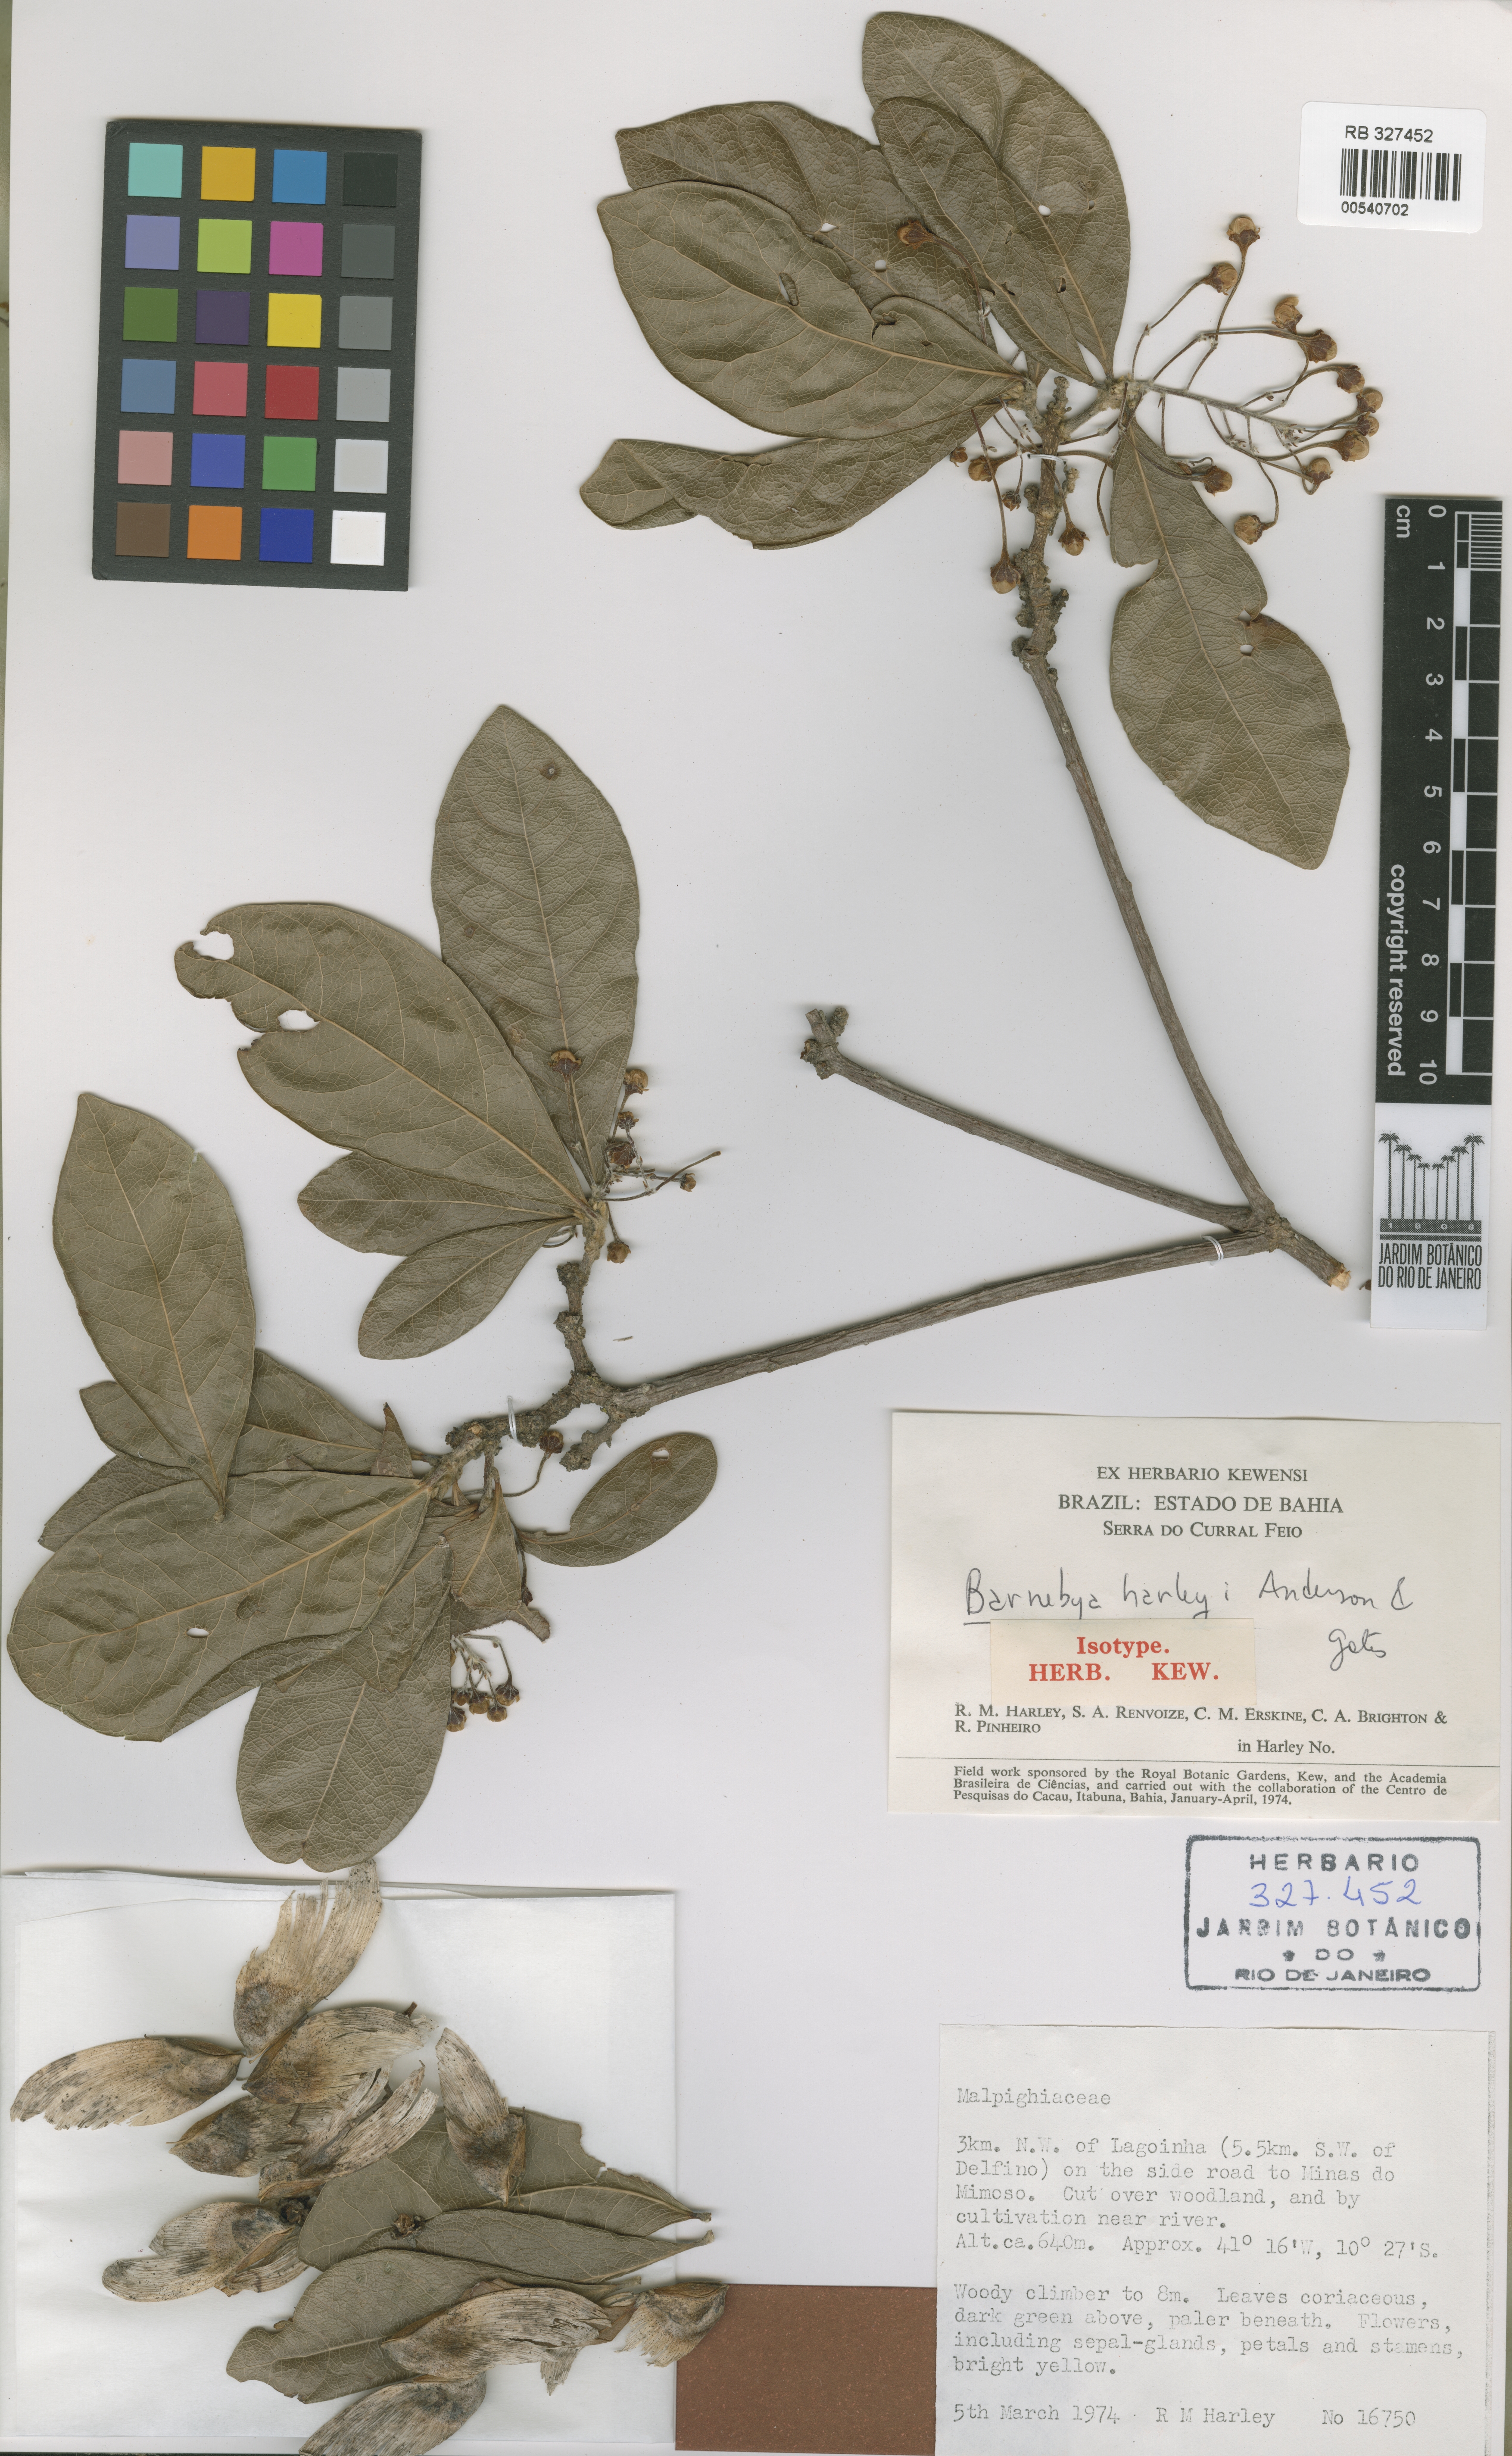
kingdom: Plantae
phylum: Tracheophyta
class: Magnoliopsida
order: Malpighiales
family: Malpighiaceae
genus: Barnebya
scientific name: Barnebya harleyi
